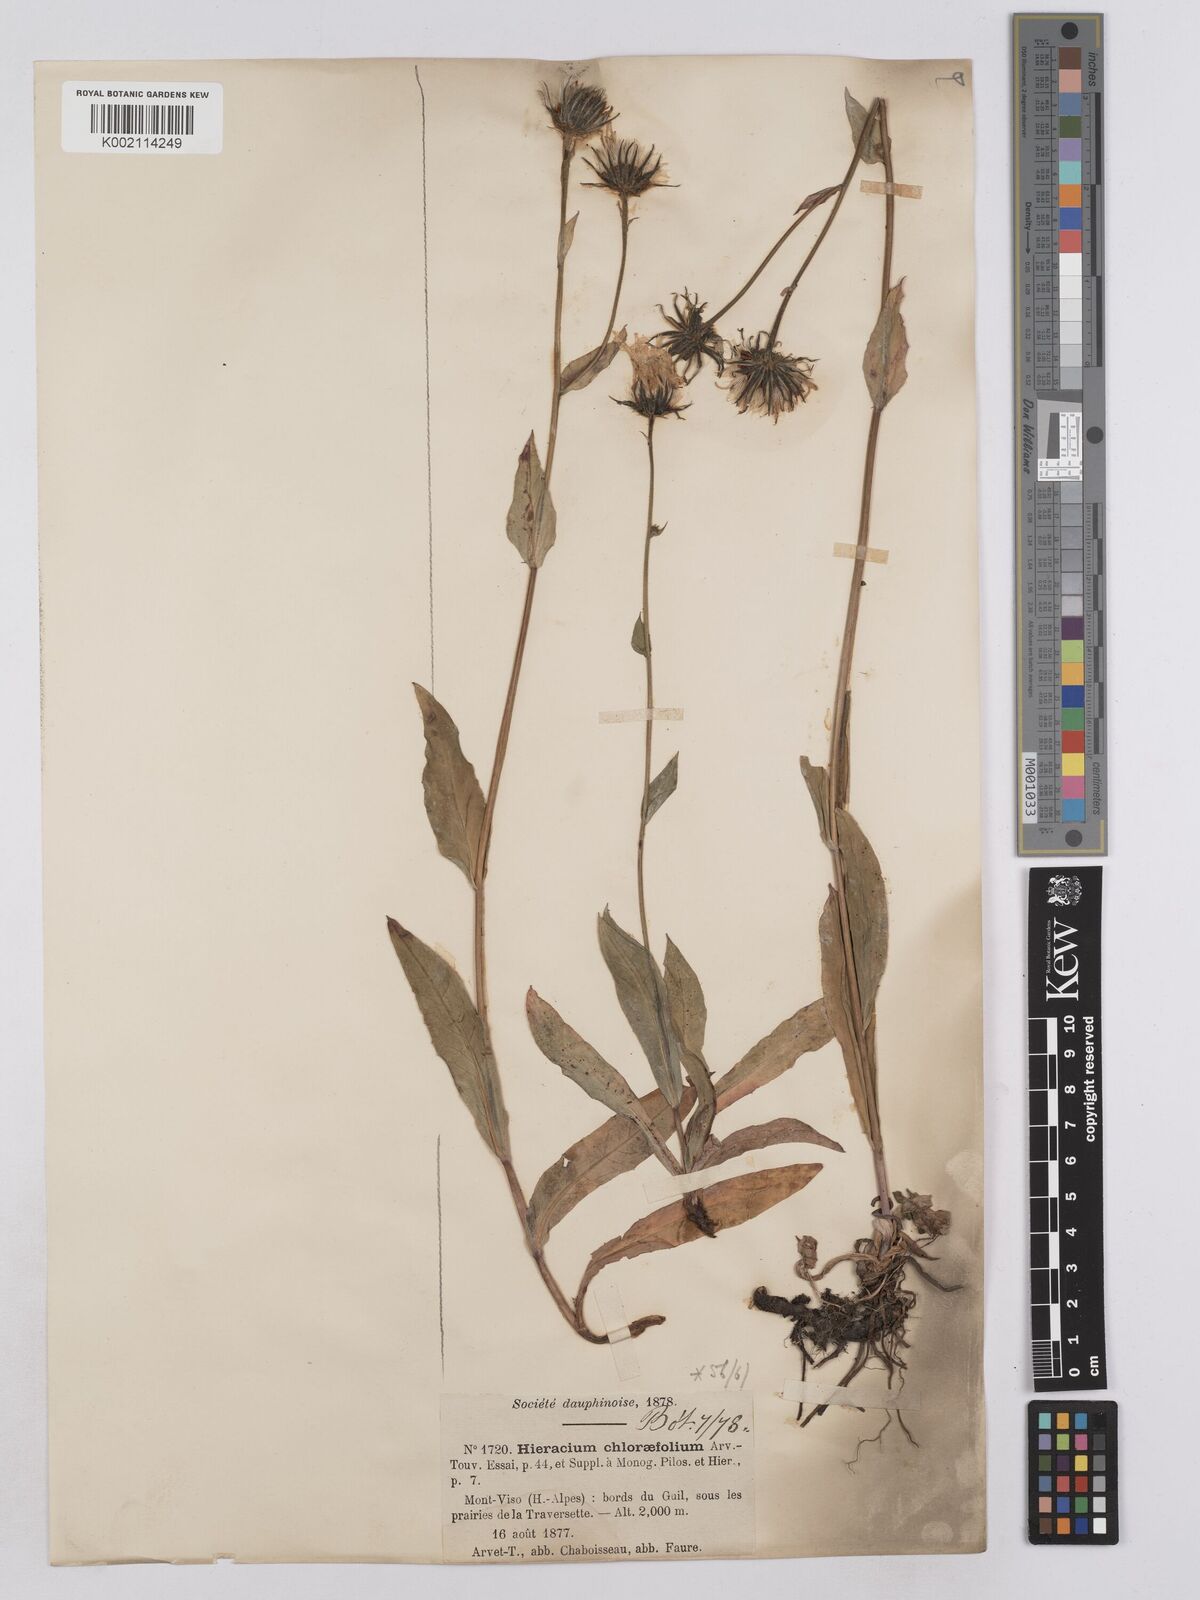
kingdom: Plantae
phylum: Tracheophyta
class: Magnoliopsida
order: Asterales
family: Asteraceae
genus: Hieracium
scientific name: Hieracium chlorifolium
